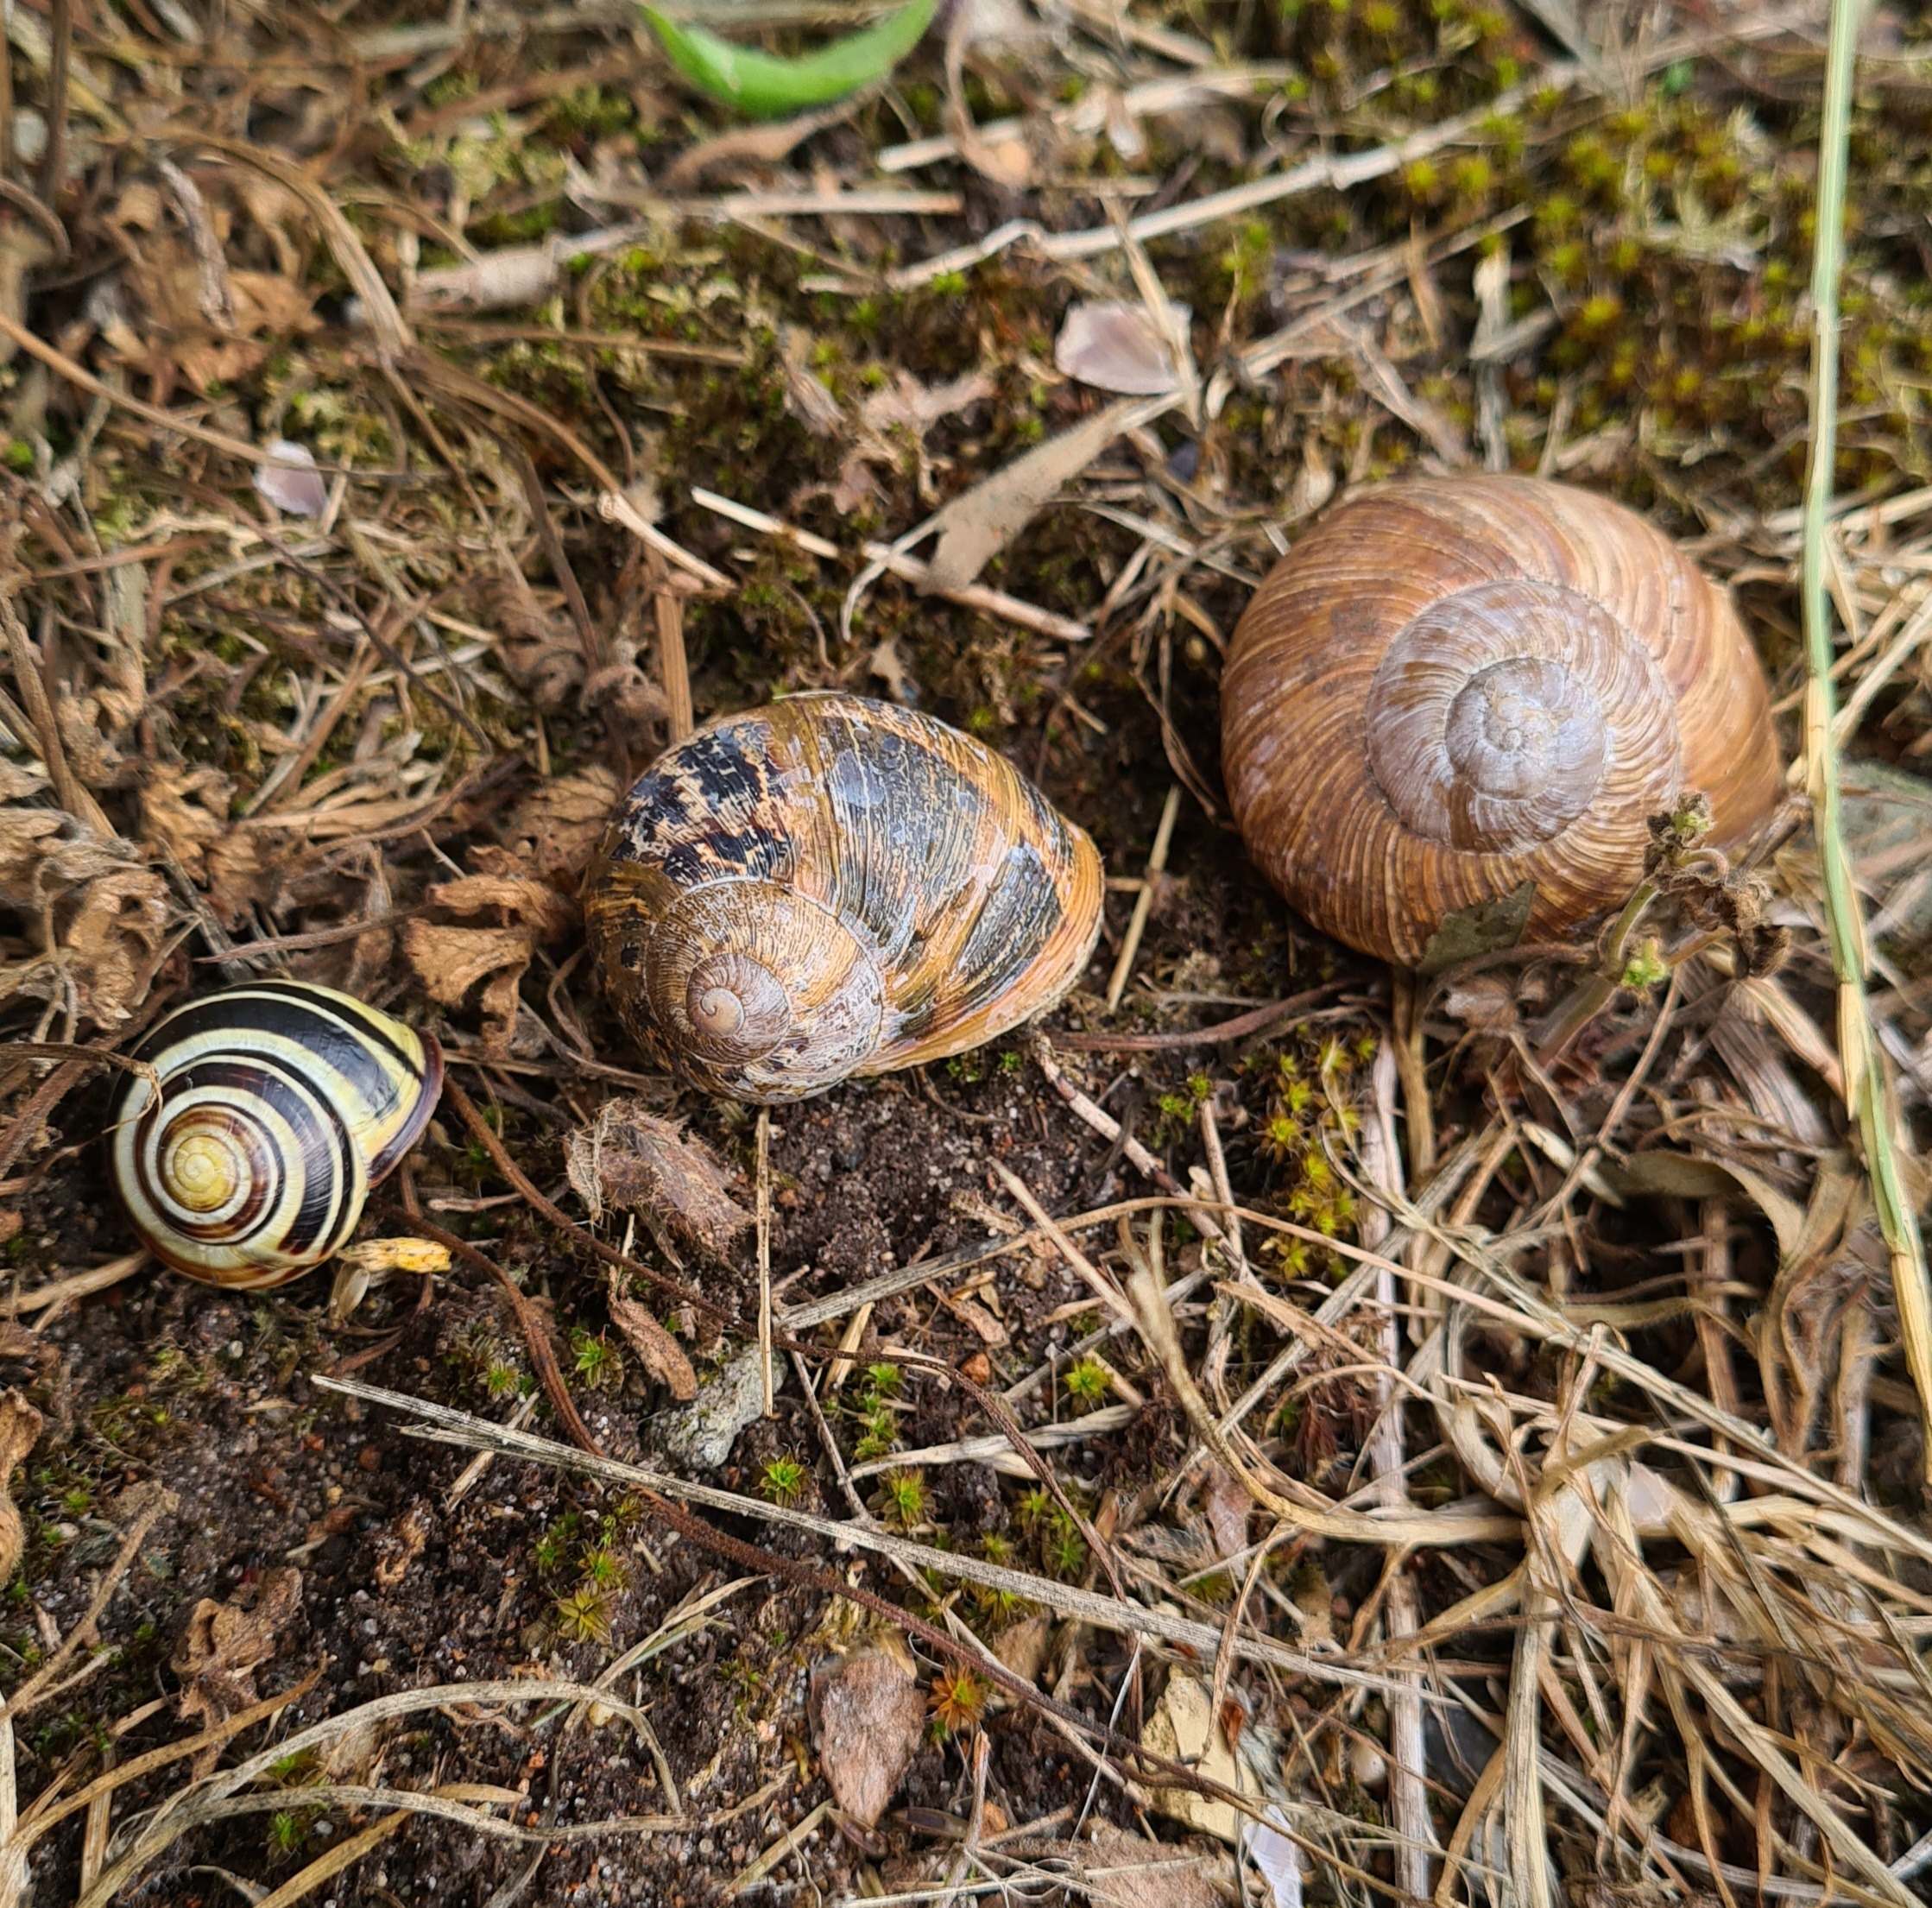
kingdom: Animalia
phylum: Mollusca
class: Gastropoda
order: Stylommatophora
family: Helicidae
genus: Helix
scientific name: Helix pomatia
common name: Vinbjergsnegl
